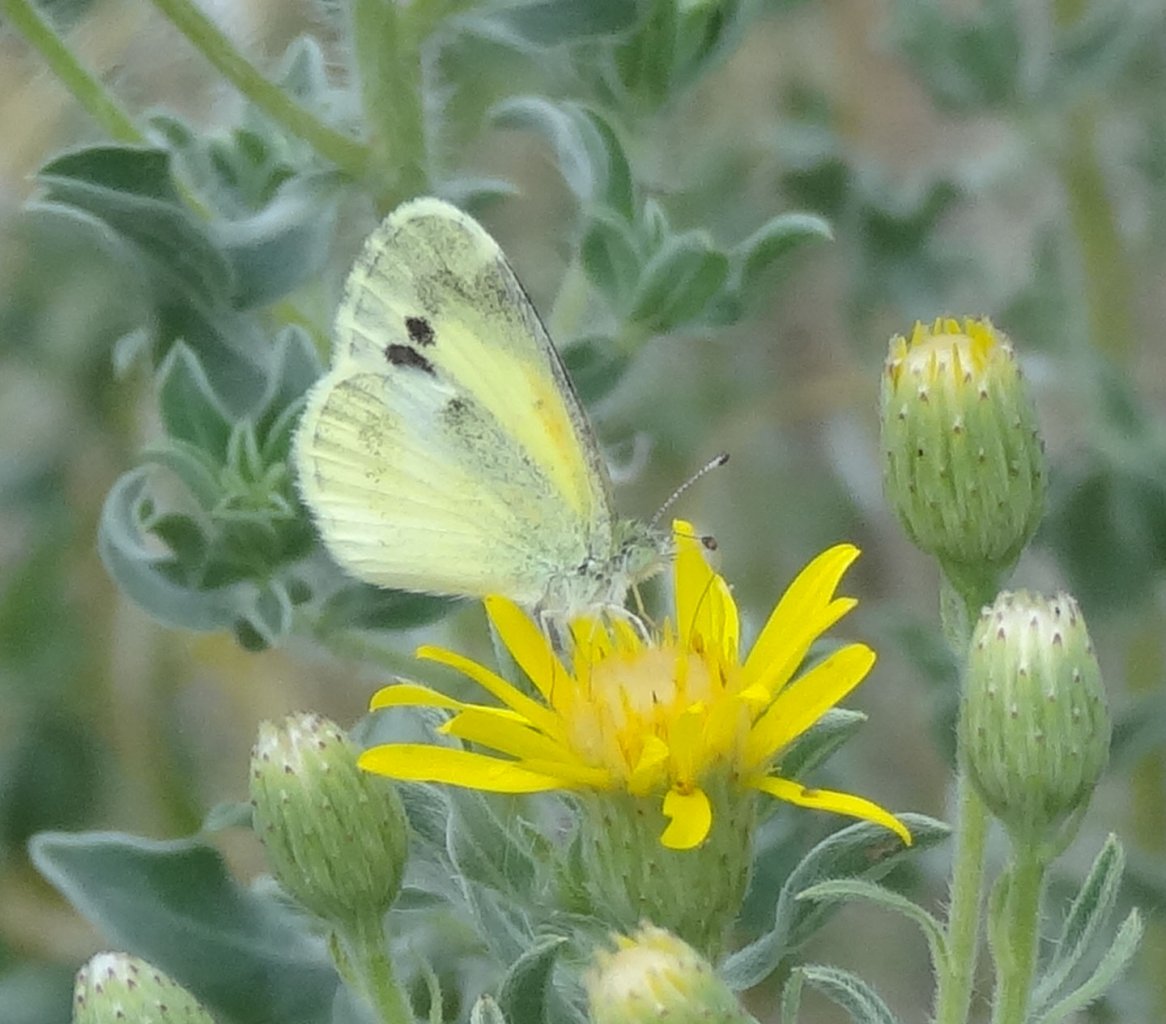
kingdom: Animalia
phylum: Arthropoda
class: Insecta
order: Lepidoptera
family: Pieridae
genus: Nathalis
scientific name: Nathalis iole
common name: Dainty Sulphur
